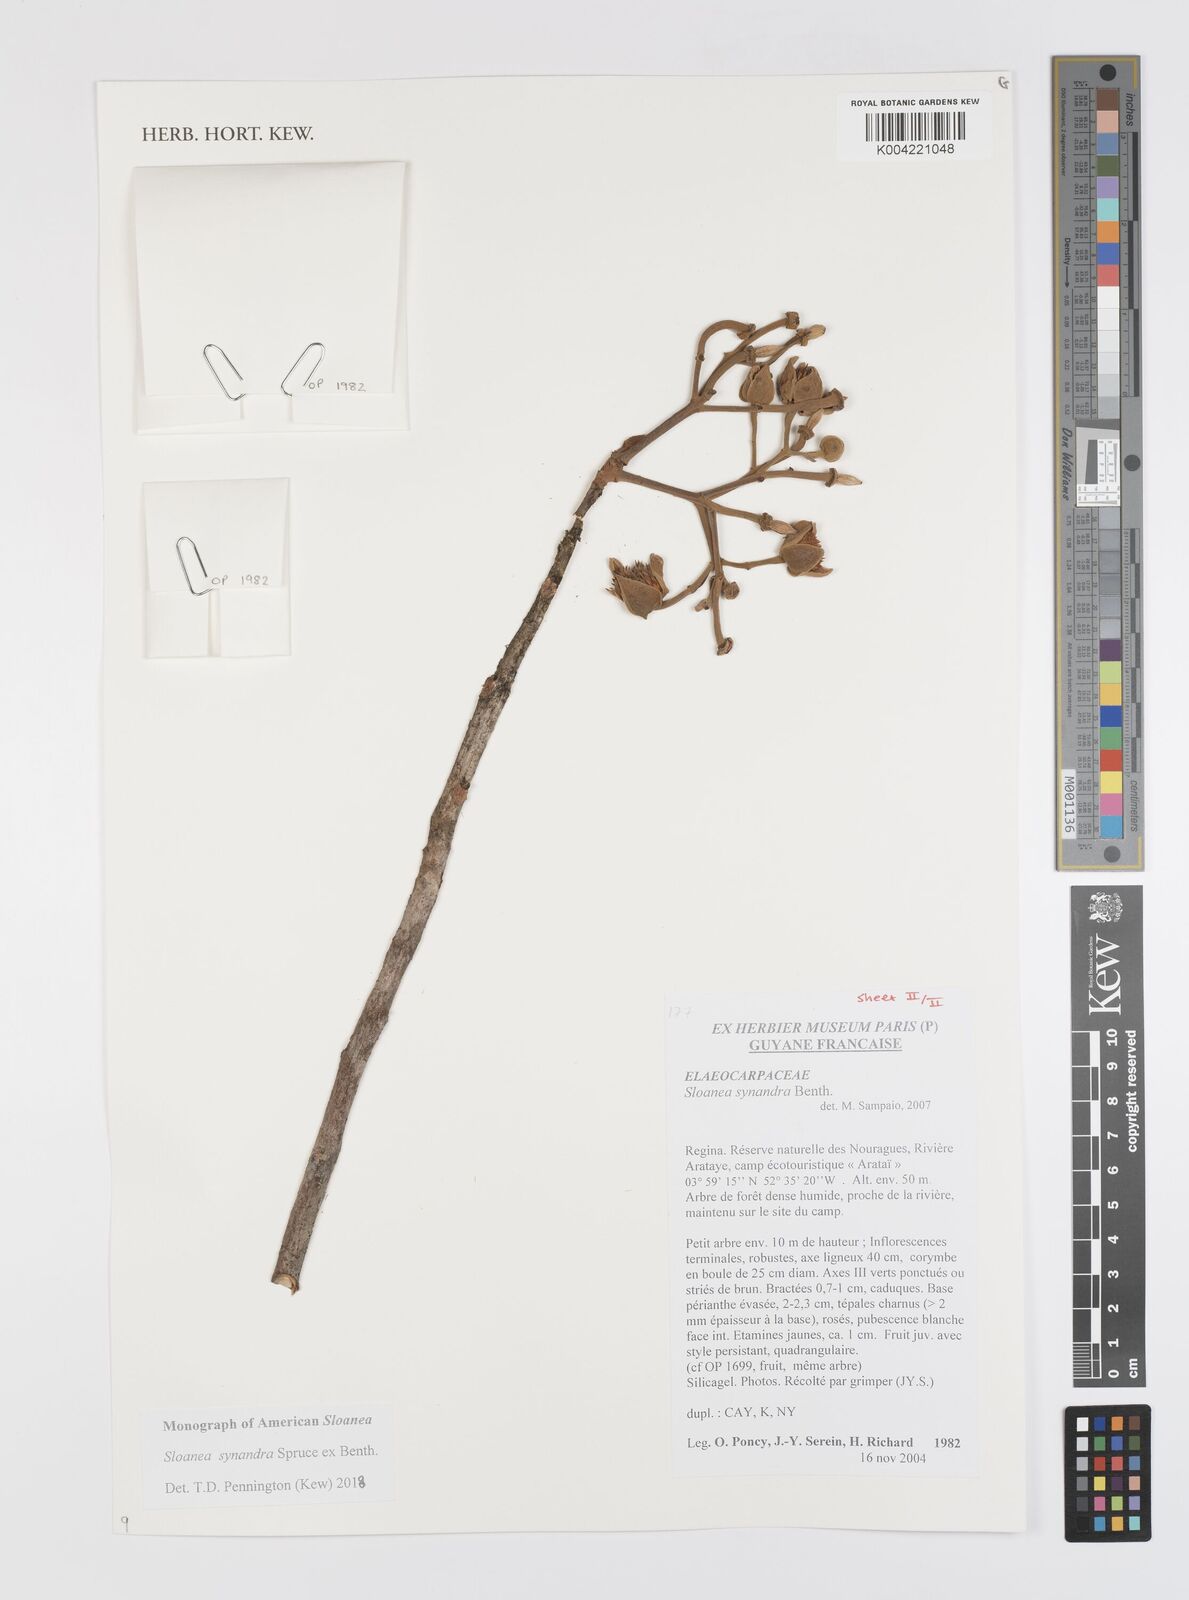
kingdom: Plantae
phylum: Tracheophyta
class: Magnoliopsida
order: Oxalidales
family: Elaeocarpaceae
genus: Sloanea
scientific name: Sloanea synandra
